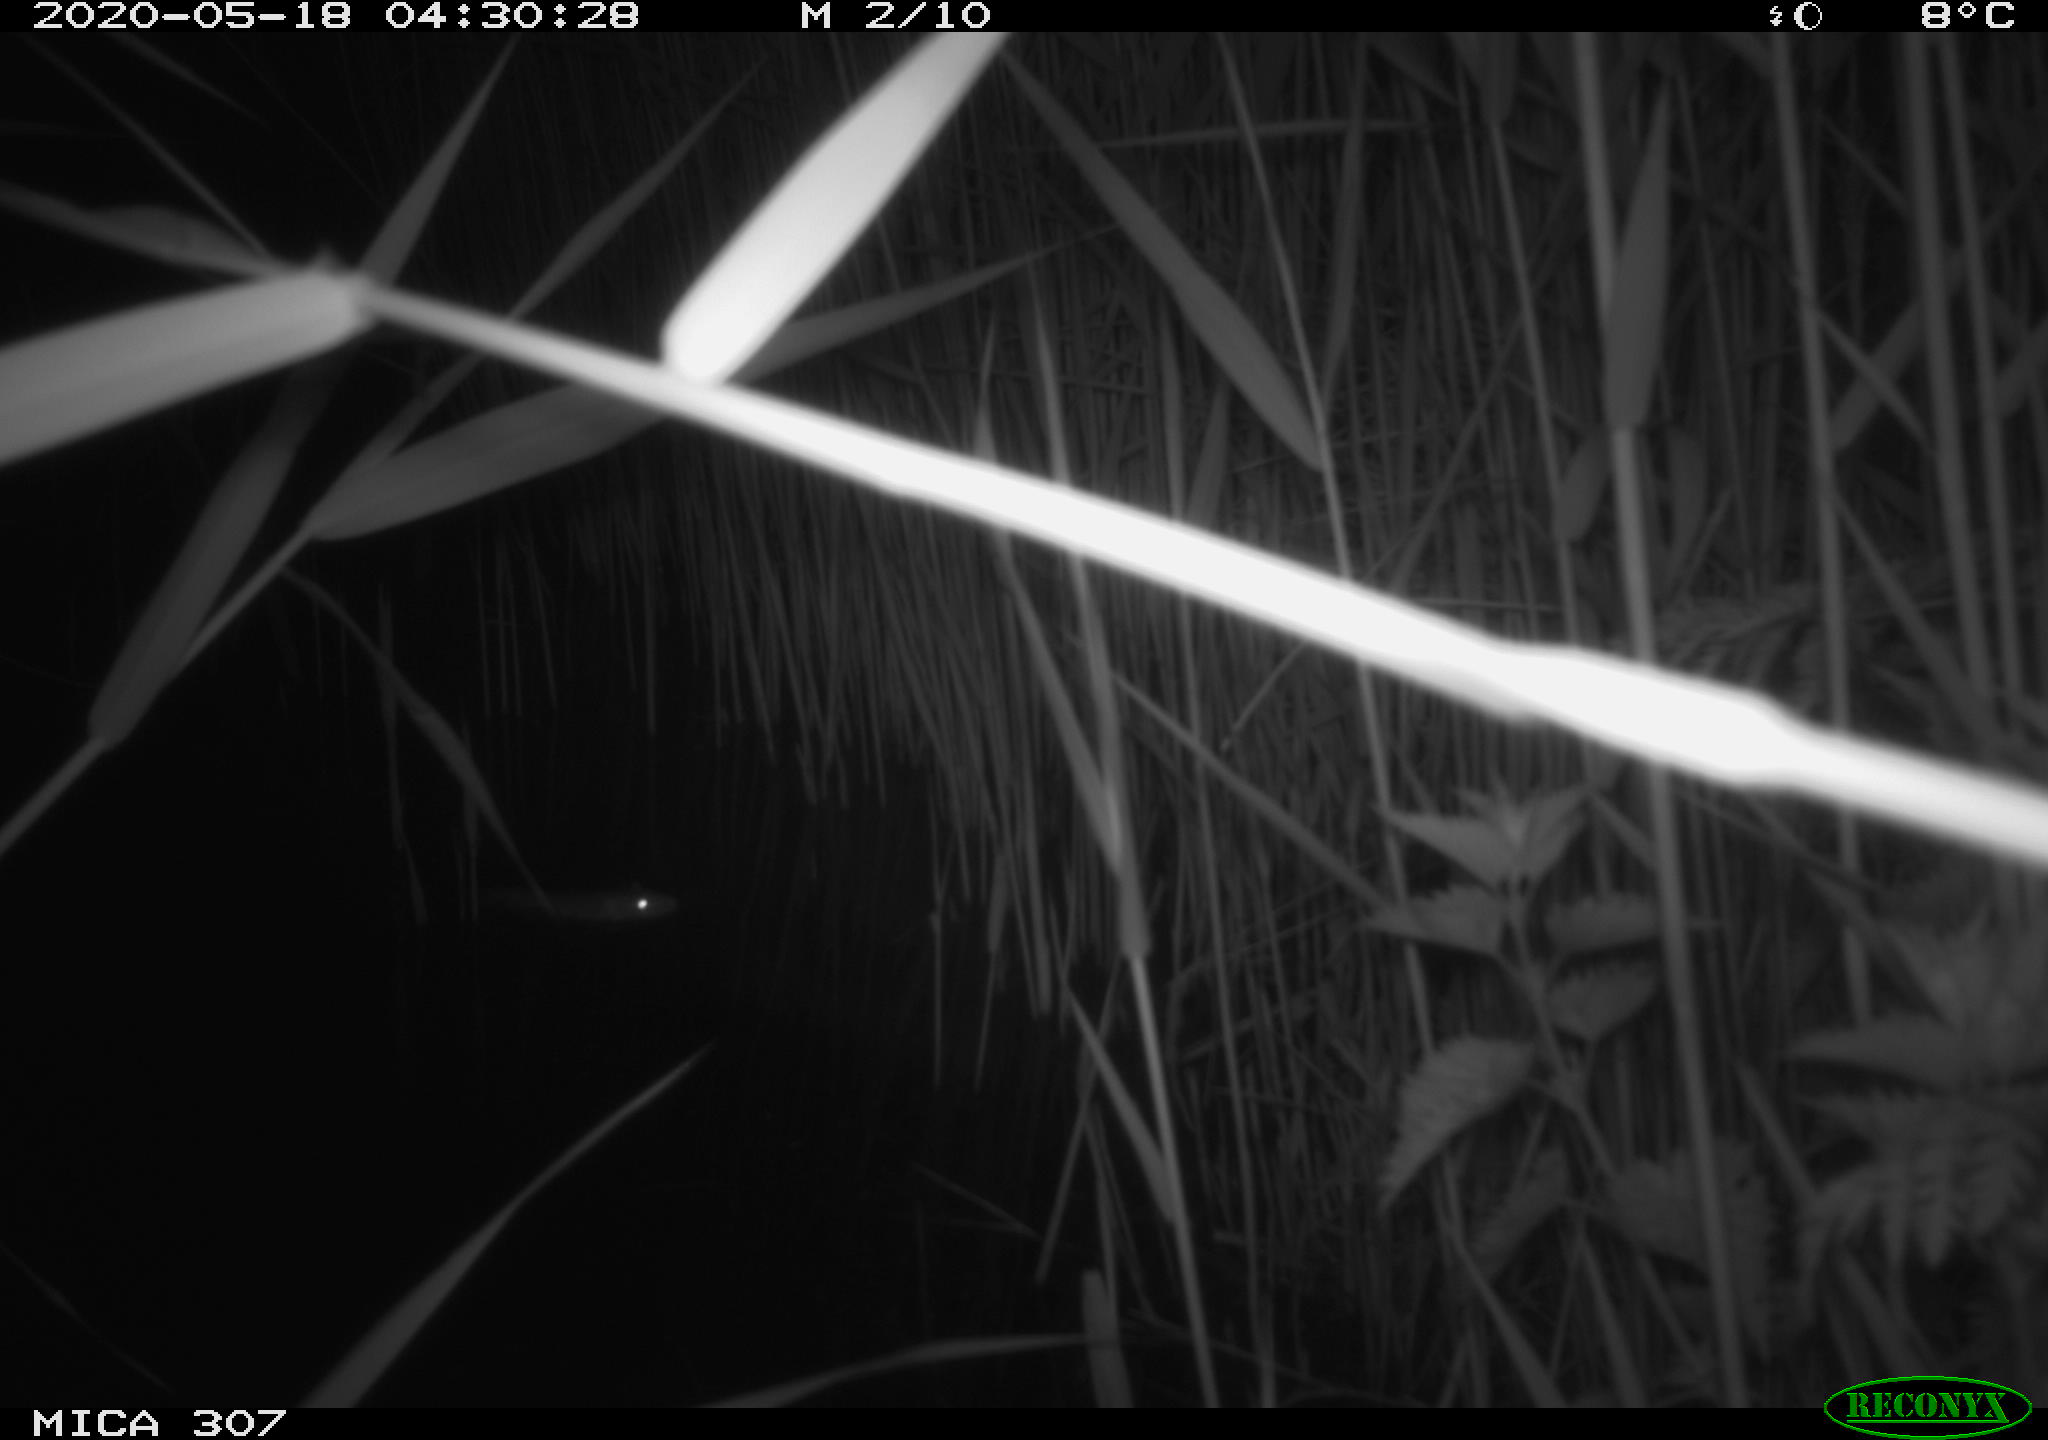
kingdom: Animalia
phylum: Chordata
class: Mammalia
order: Rodentia
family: Muridae
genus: Rattus
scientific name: Rattus norvegicus
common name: Brown rat
